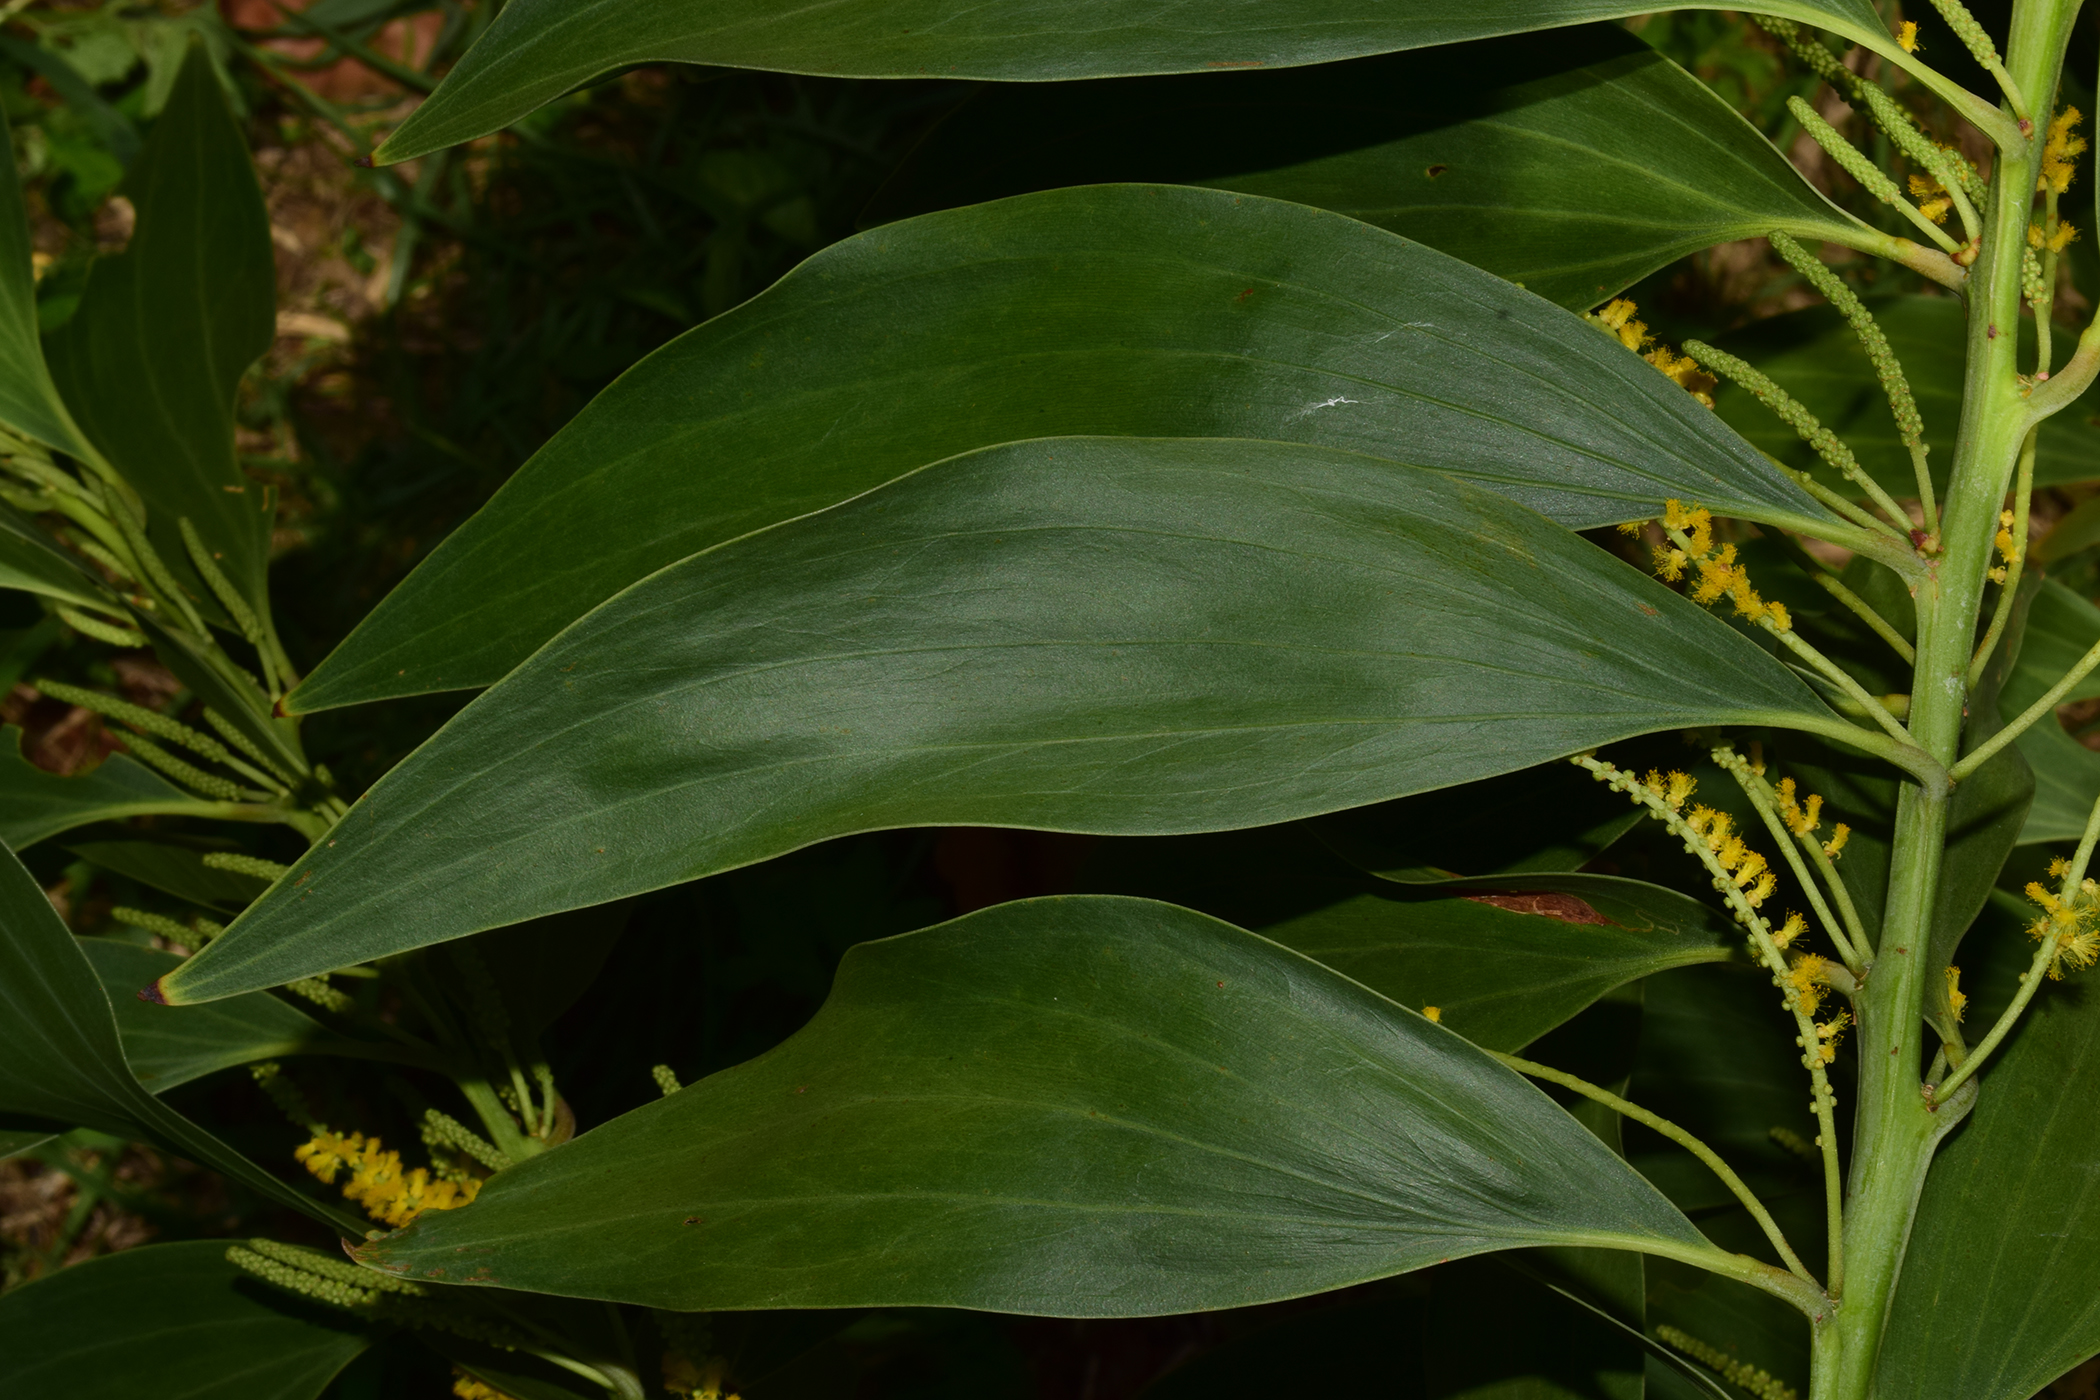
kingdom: Plantae
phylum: Tracheophyta
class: Magnoliopsida
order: Fabales
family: Fabaceae
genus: Acacia
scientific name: Acacia auriculiformis
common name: Earleaf acacia
